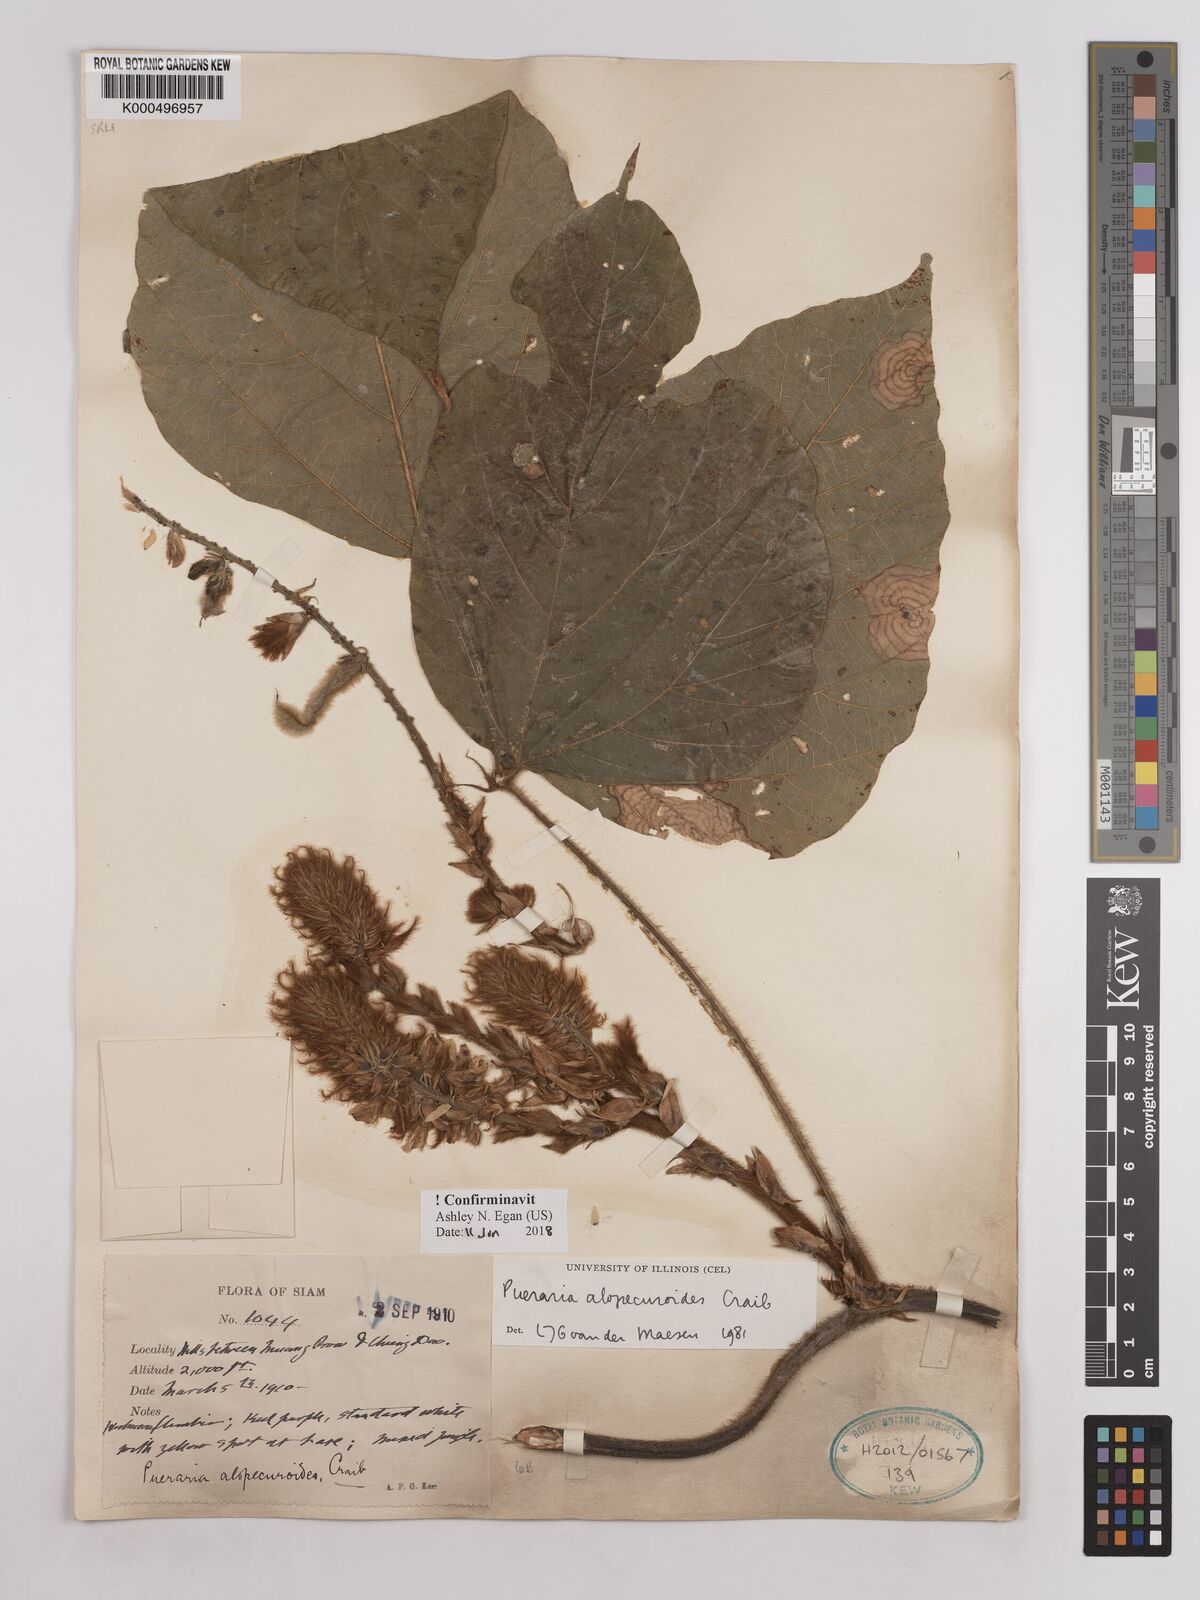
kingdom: Plantae
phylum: Tracheophyta
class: Magnoliopsida
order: Fabales
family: Fabaceae
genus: Pueraria
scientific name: Pueraria alopecuroides
